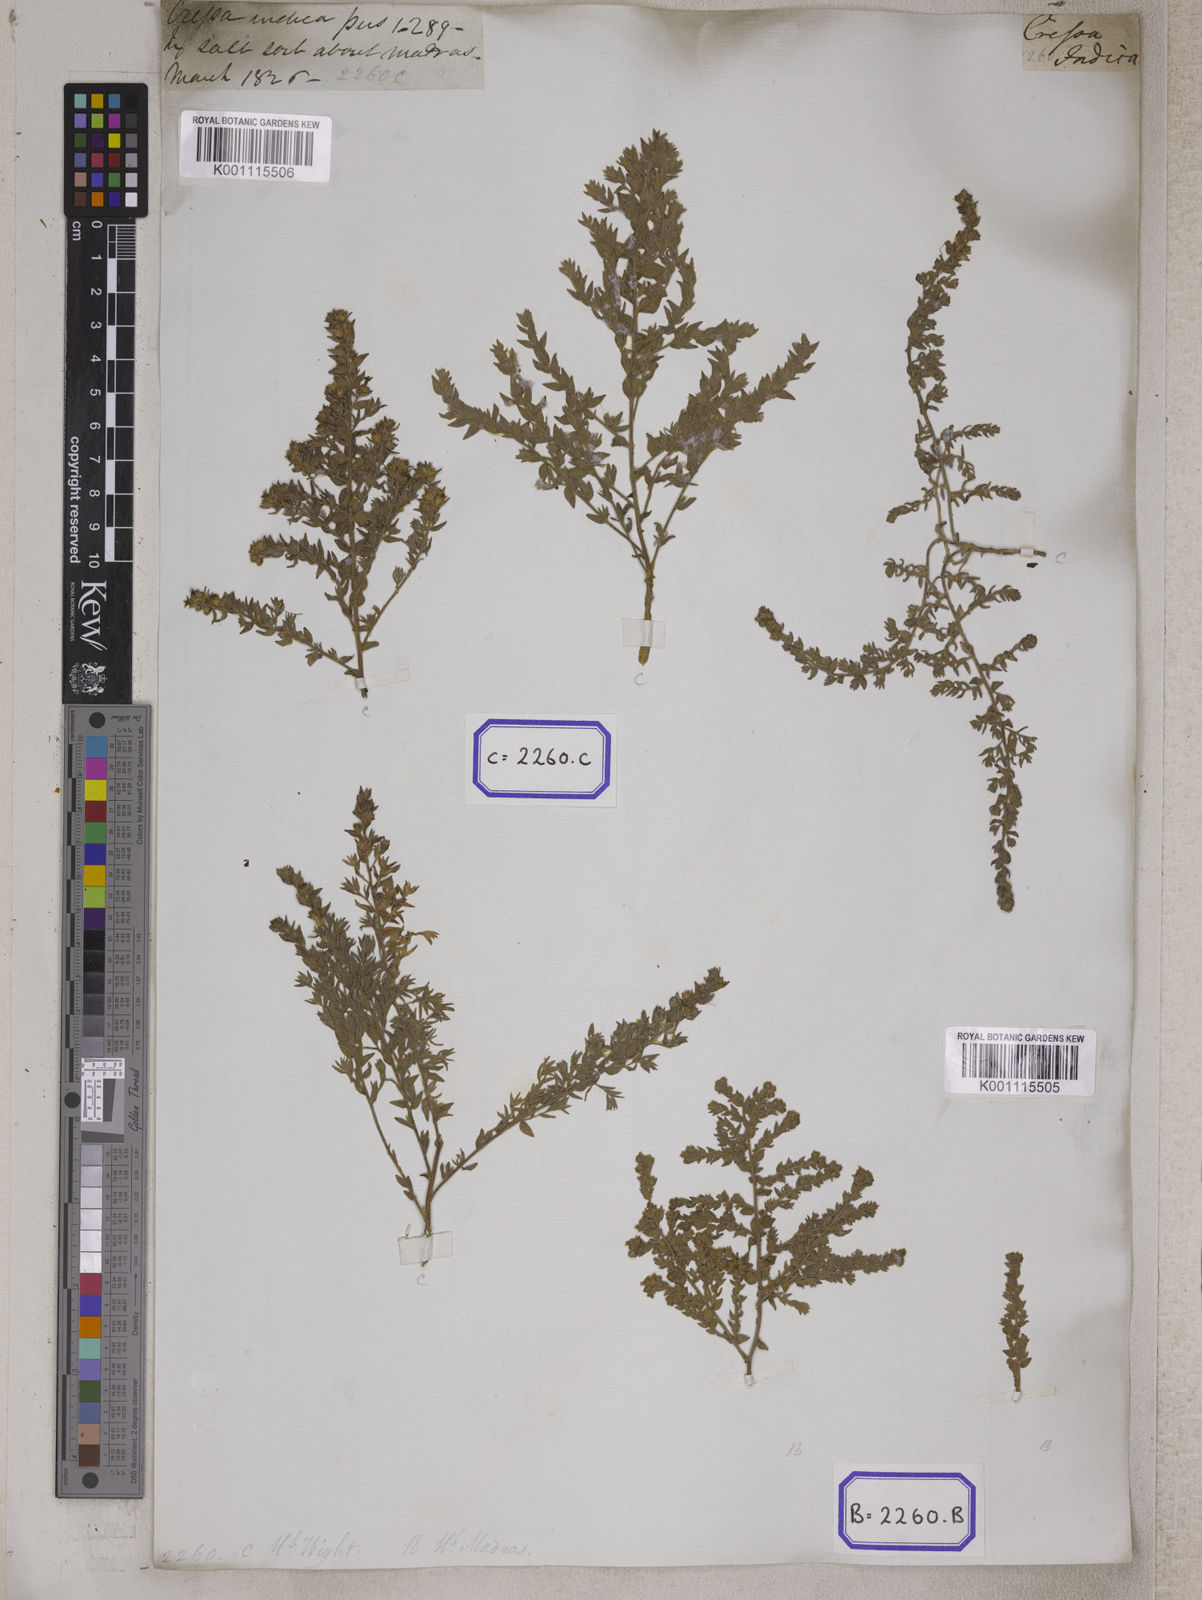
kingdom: Plantae
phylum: Tracheophyta
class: Magnoliopsida
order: Solanales
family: Convolvulaceae
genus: Cressa
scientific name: Cressa cretica
